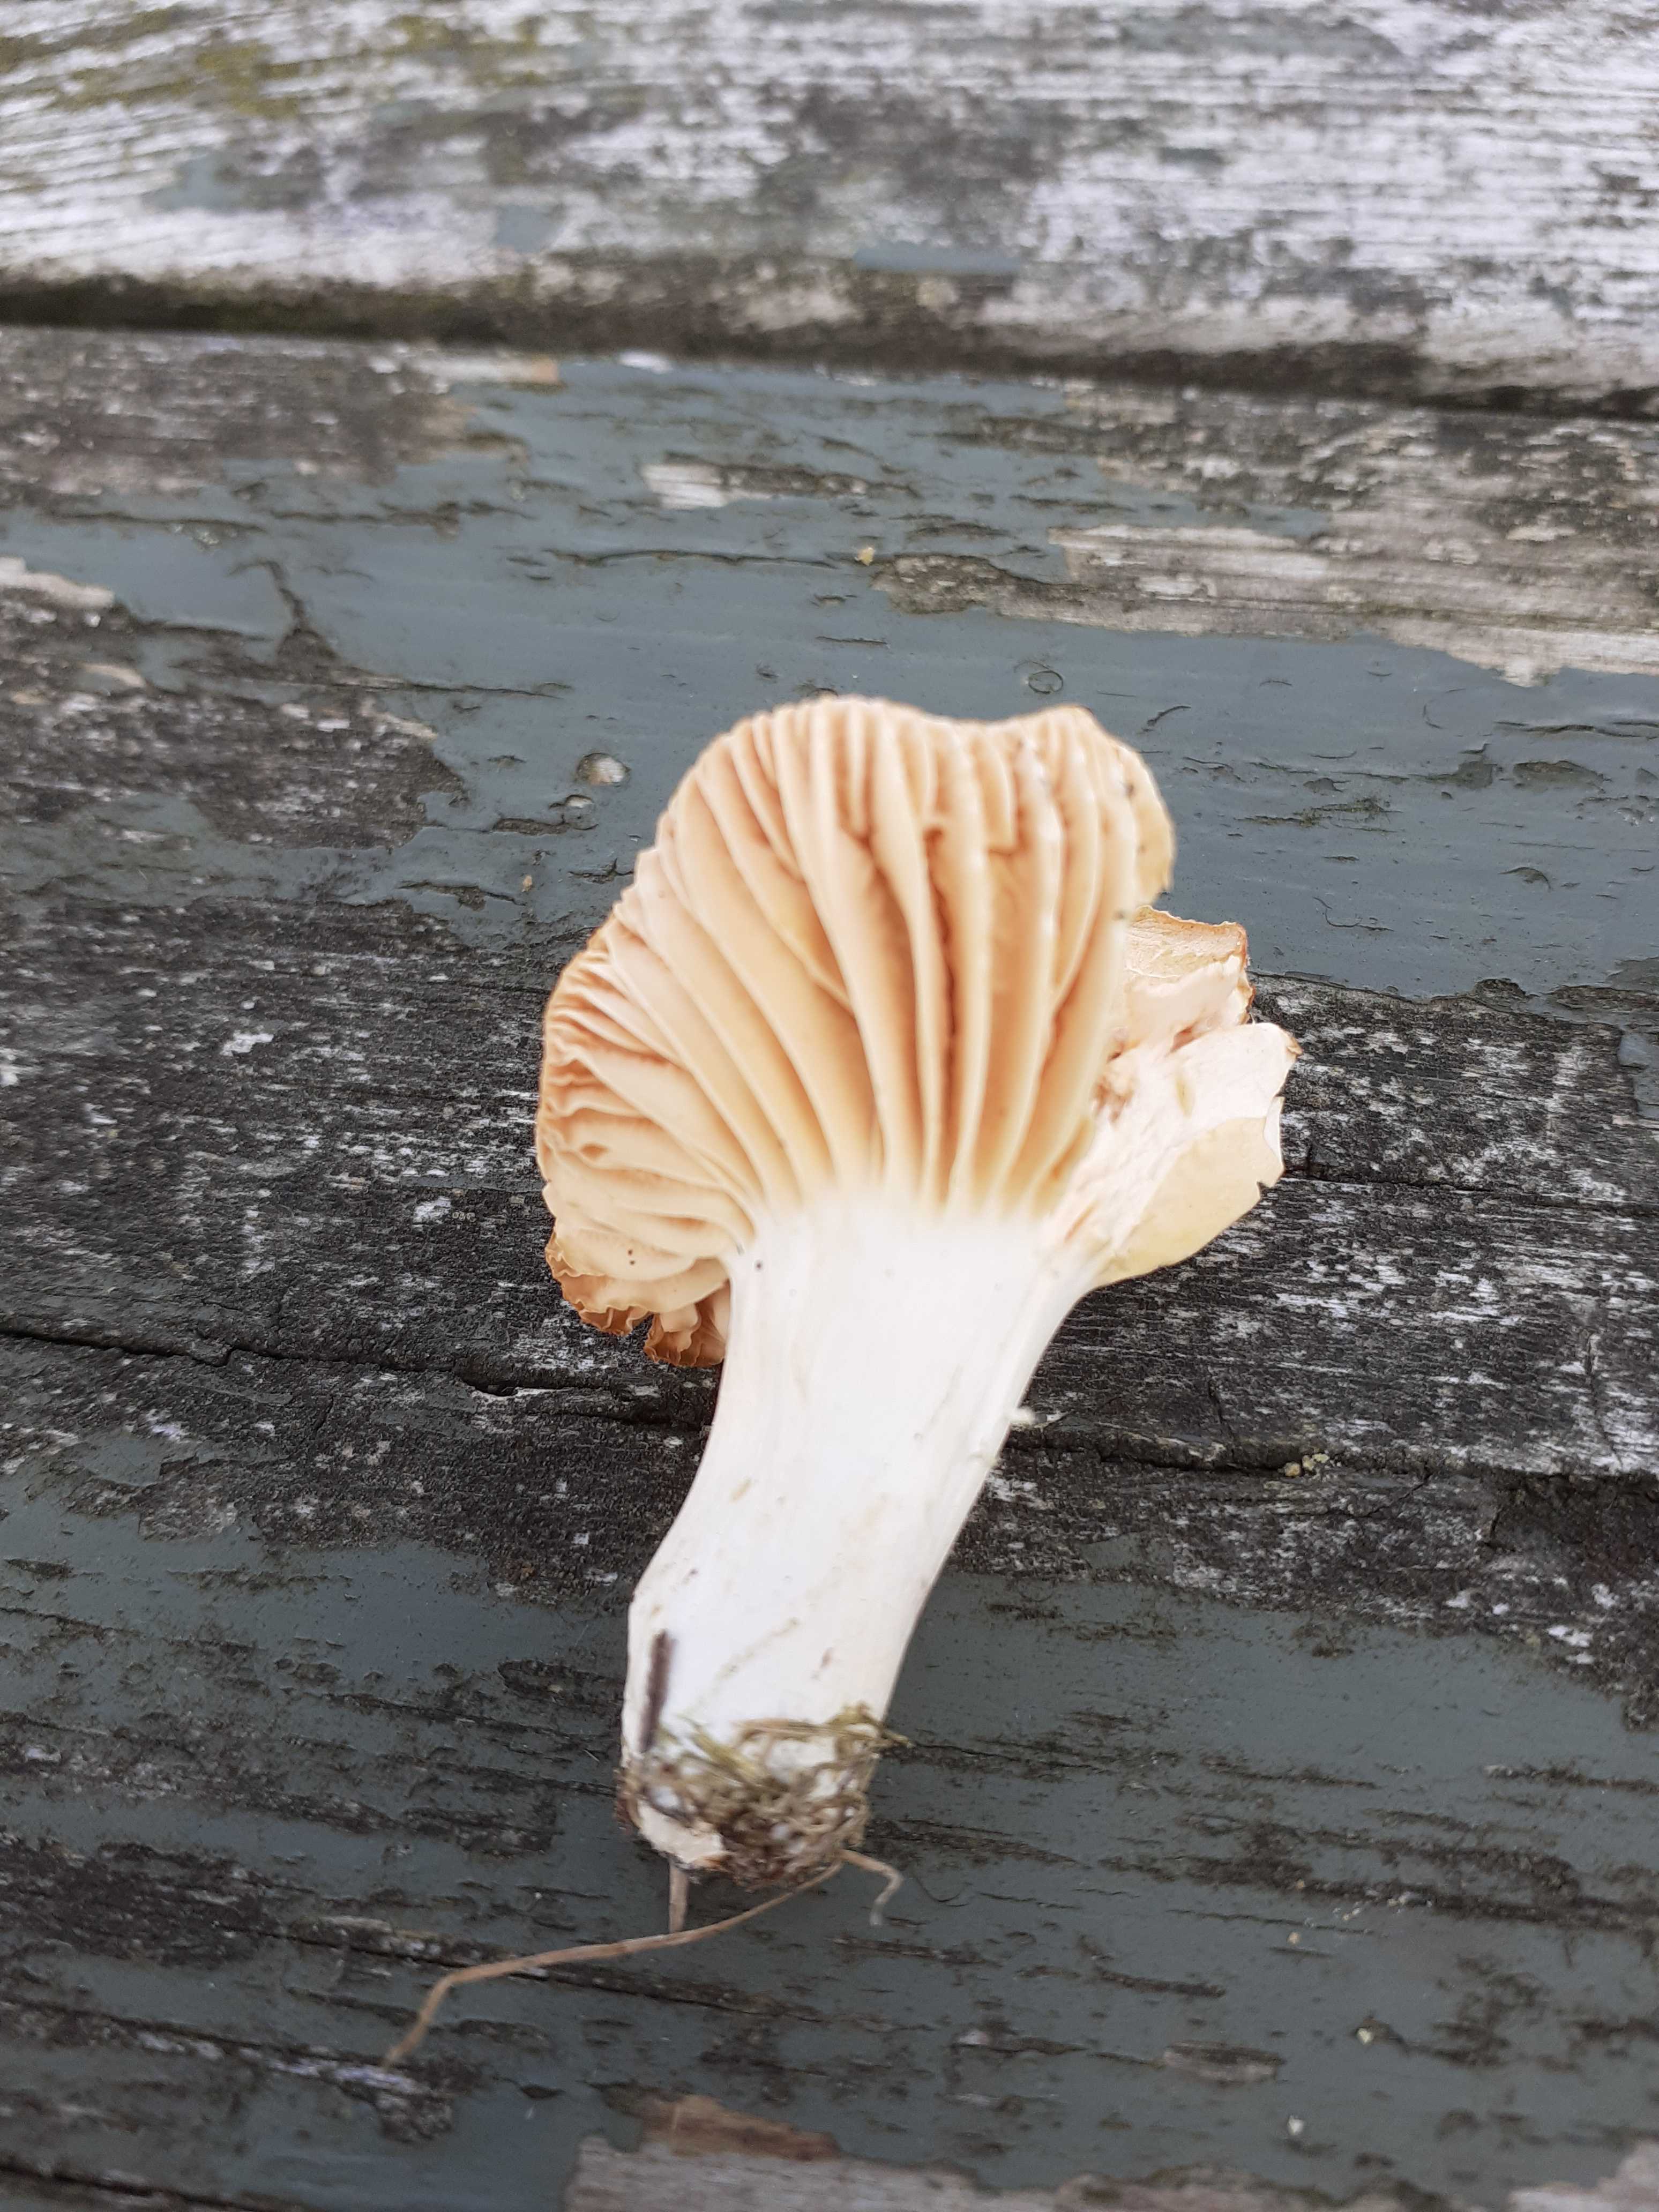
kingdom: Fungi
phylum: Basidiomycota
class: Agaricomycetes
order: Agaricales
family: Hygrophoraceae
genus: Cuphophyllus
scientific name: Cuphophyllus pratensis
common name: eng-vokshat
